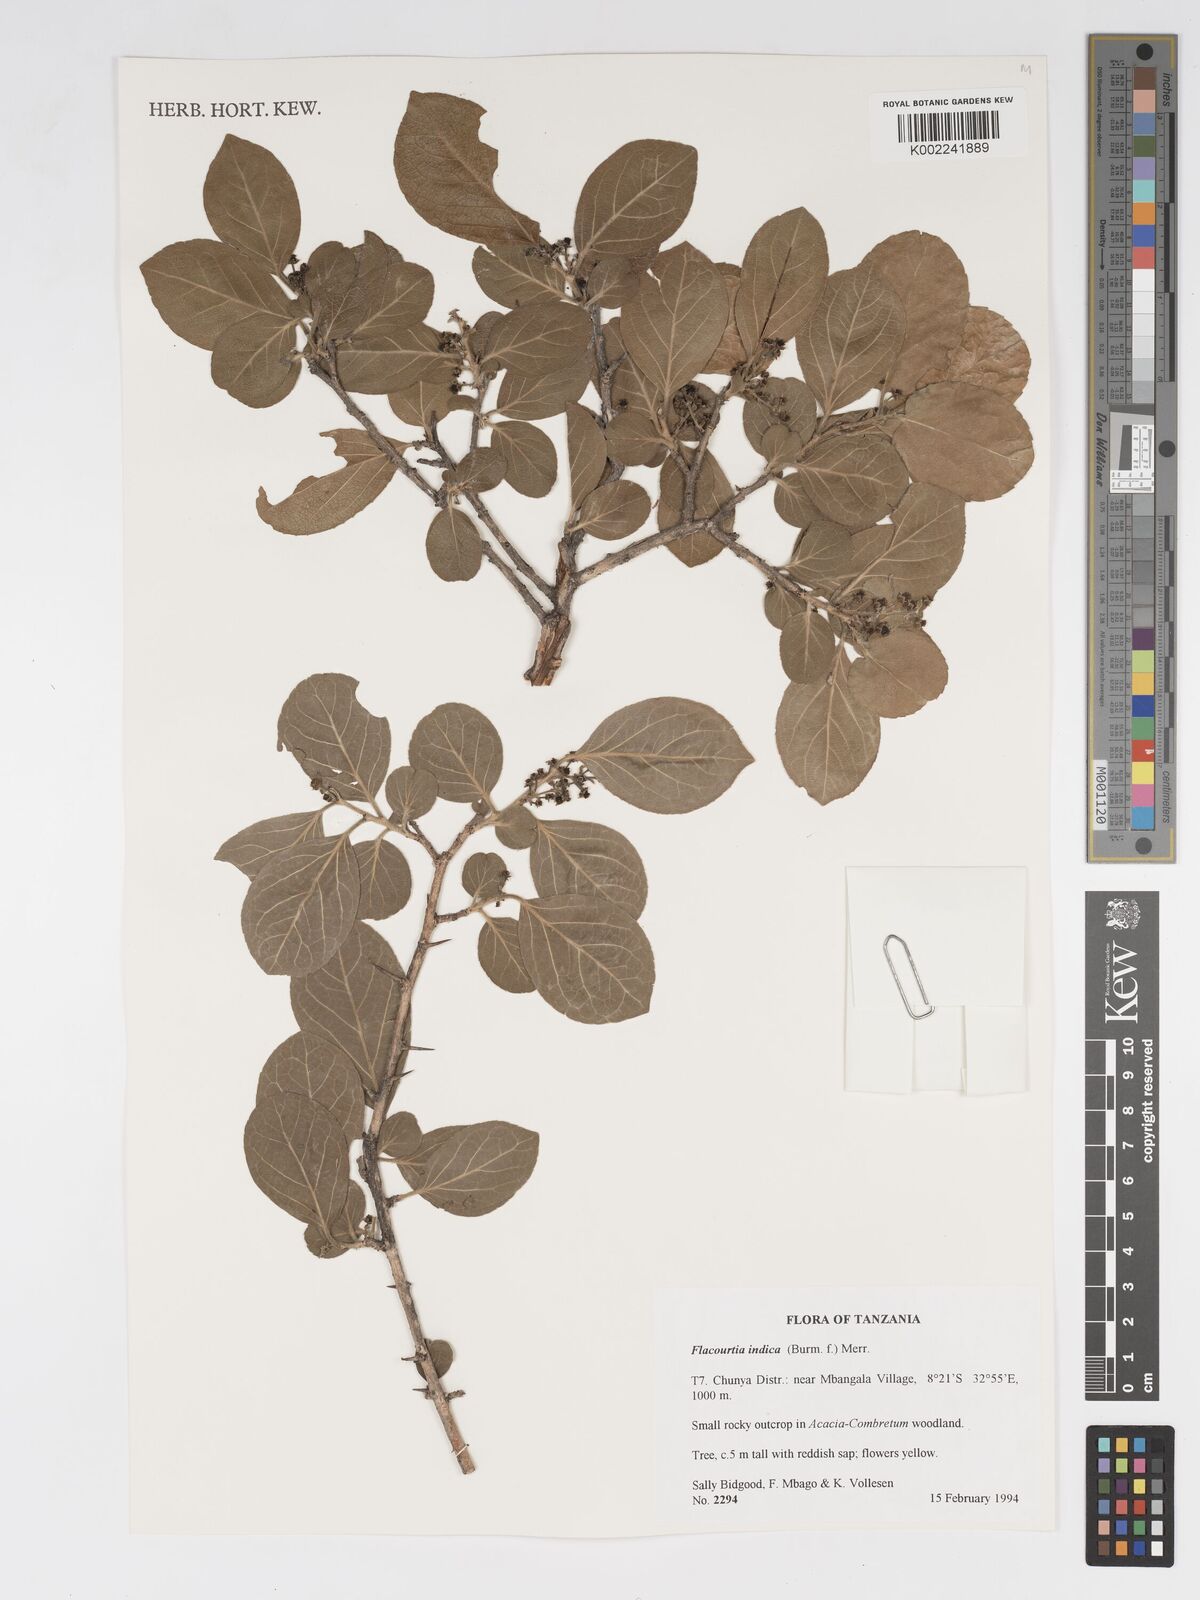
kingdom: Plantae
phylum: Tracheophyta
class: Magnoliopsida
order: Malpighiales
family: Salicaceae
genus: Flacourtia
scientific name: Flacourtia indica
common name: Governor's plum
